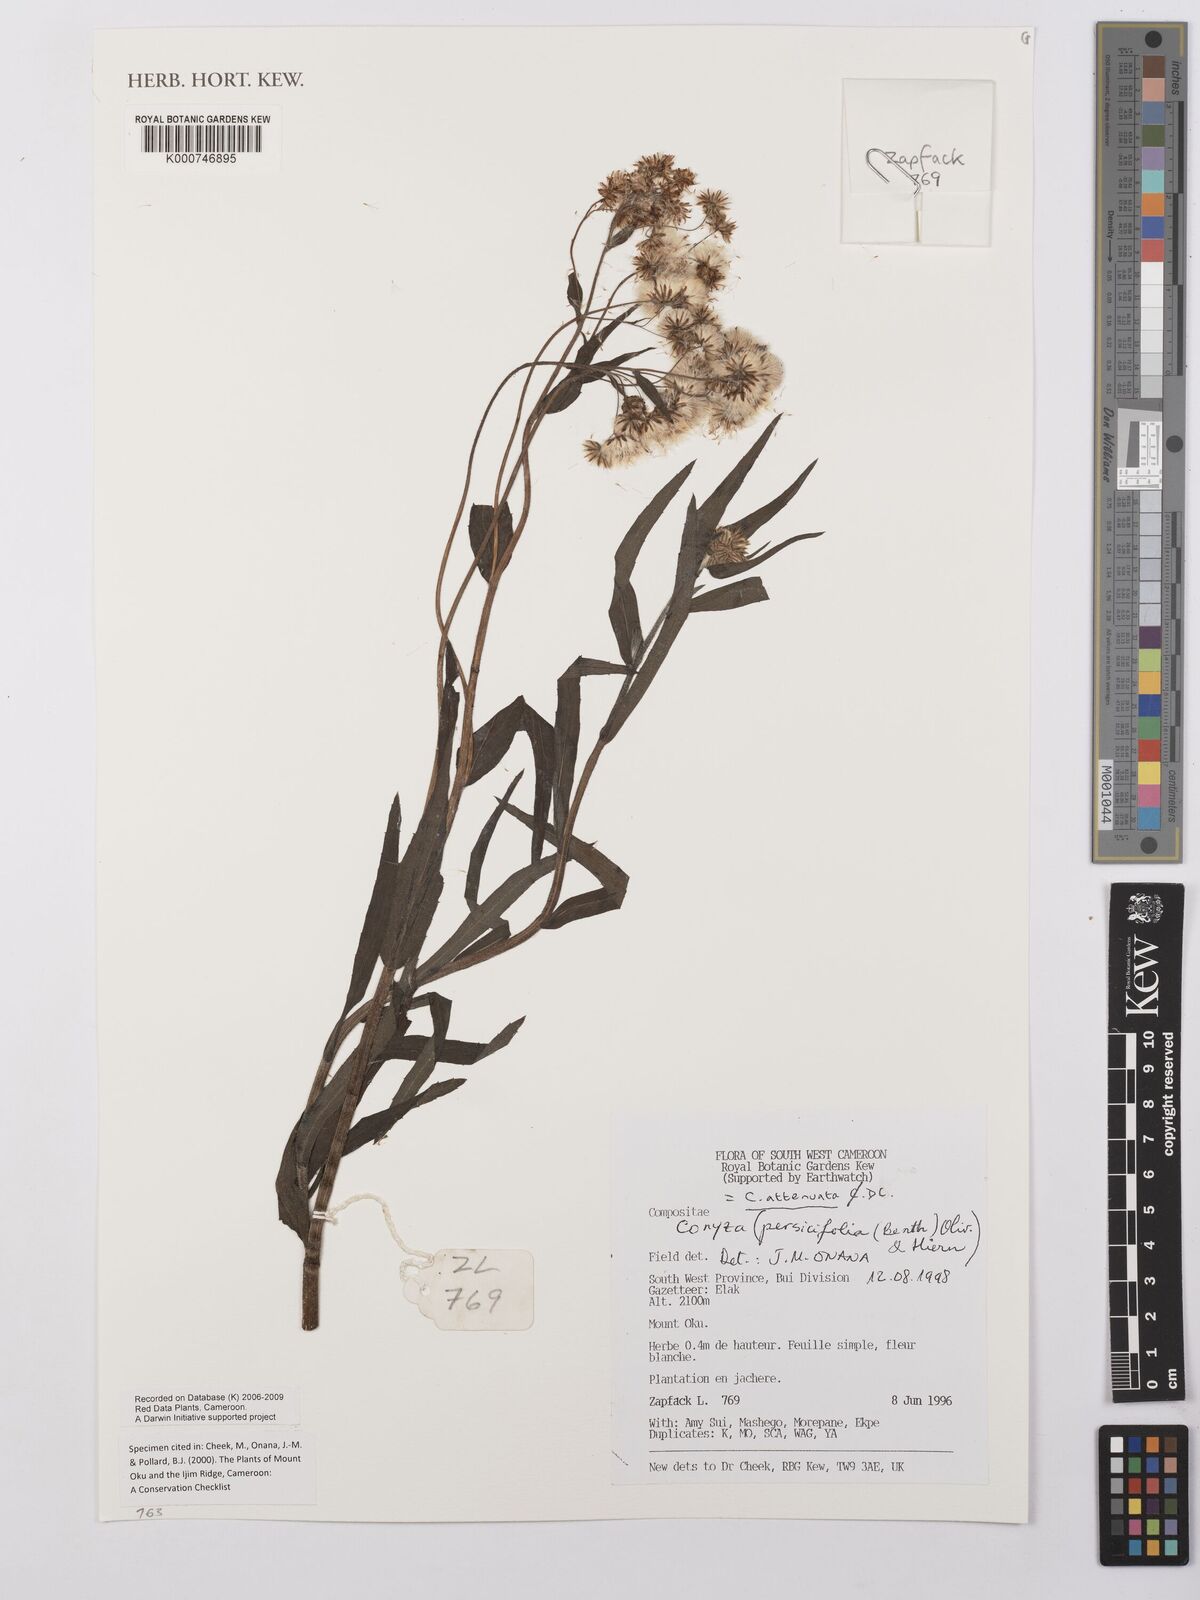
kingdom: Plantae
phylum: Tracheophyta
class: Magnoliopsida
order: Asterales
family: Asteraceae
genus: Nidorella
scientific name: Nidorella attenuata
